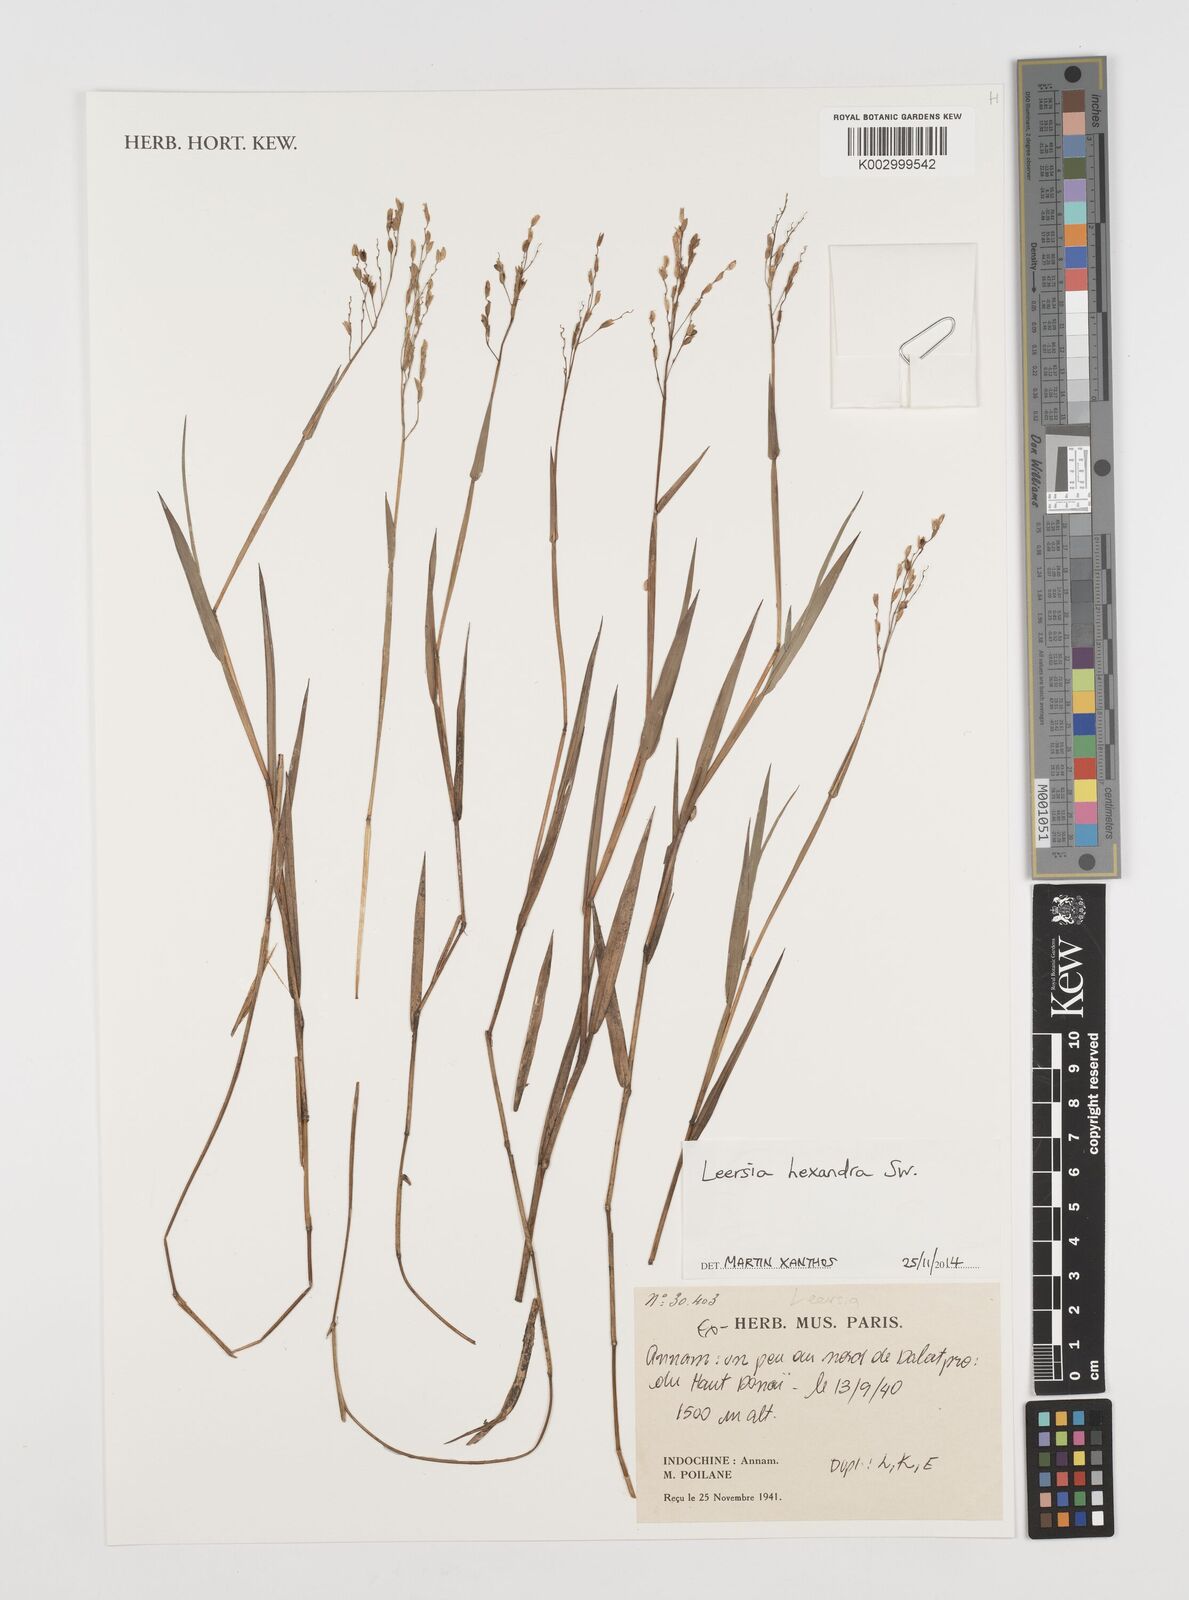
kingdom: Plantae
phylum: Tracheophyta
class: Liliopsida
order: Poales
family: Poaceae
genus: Leersia
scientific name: Leersia hexandra
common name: Southern cut grass
